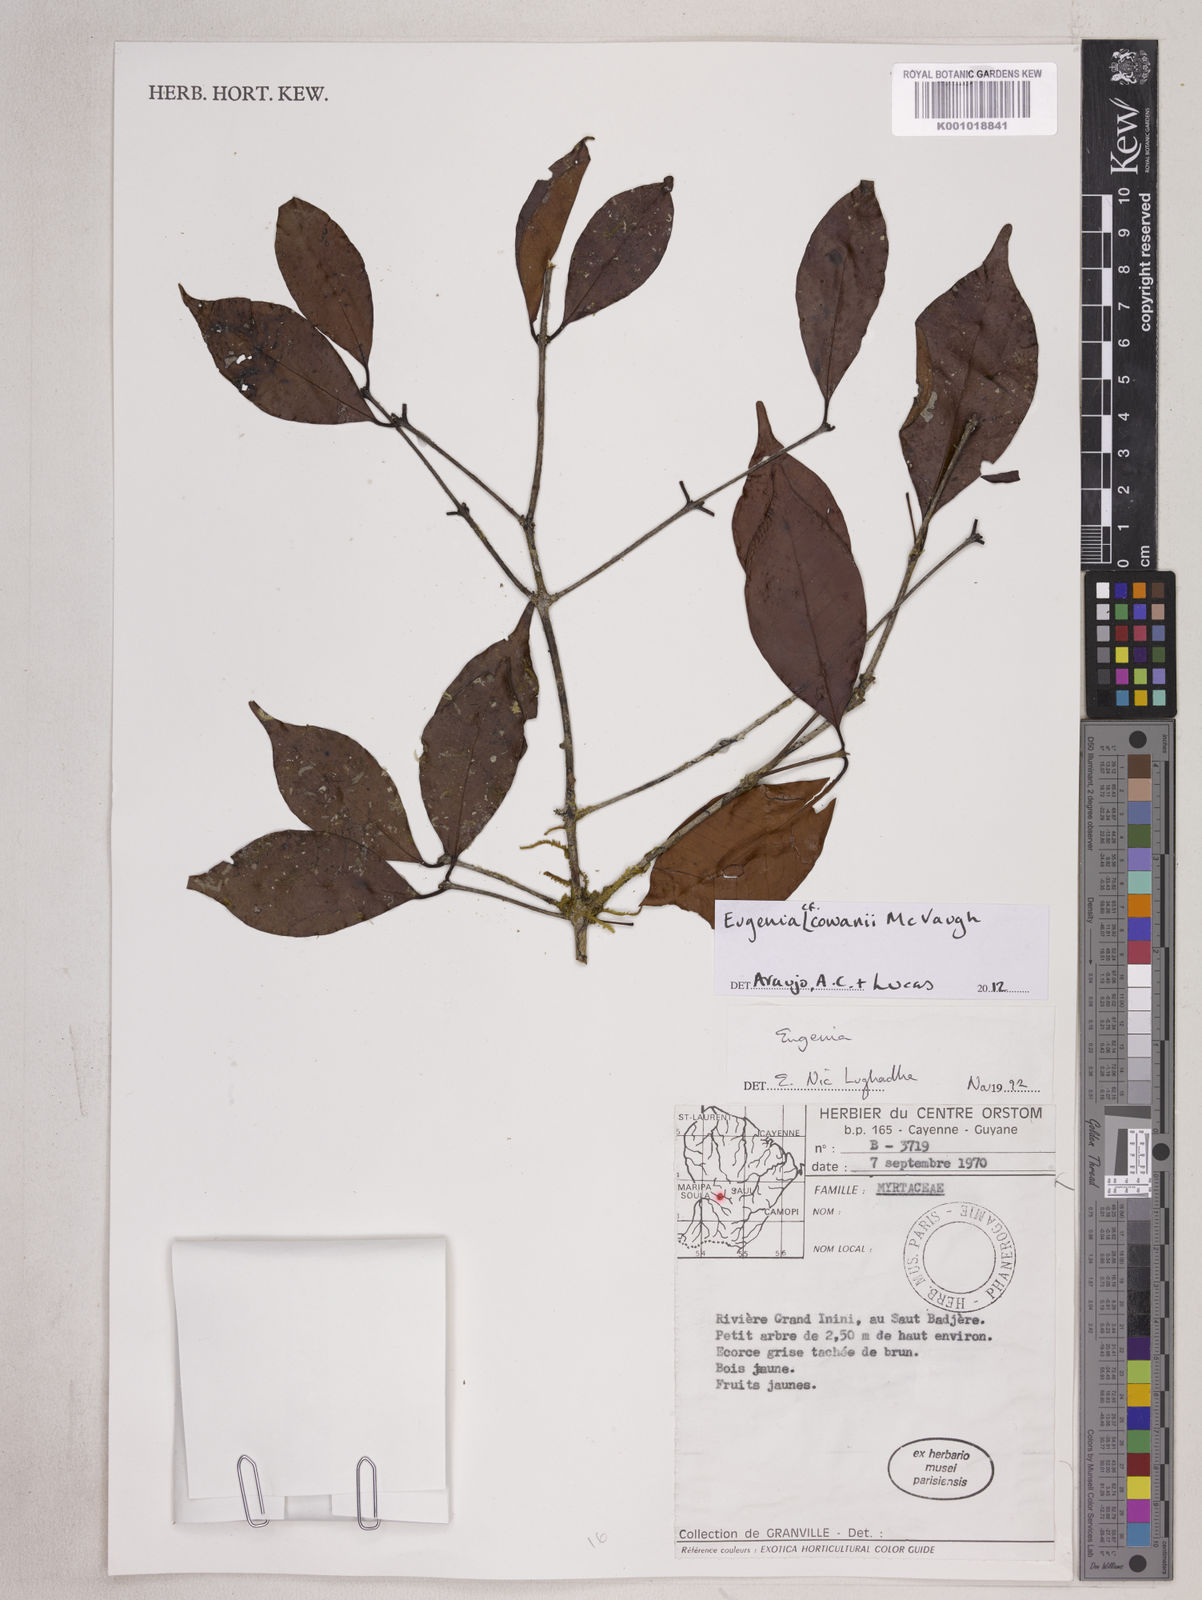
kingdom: Plantae
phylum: Tracheophyta
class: Magnoliopsida
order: Myrtales
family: Myrtaceae
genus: Eugenia
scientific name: Eugenia cowanii
